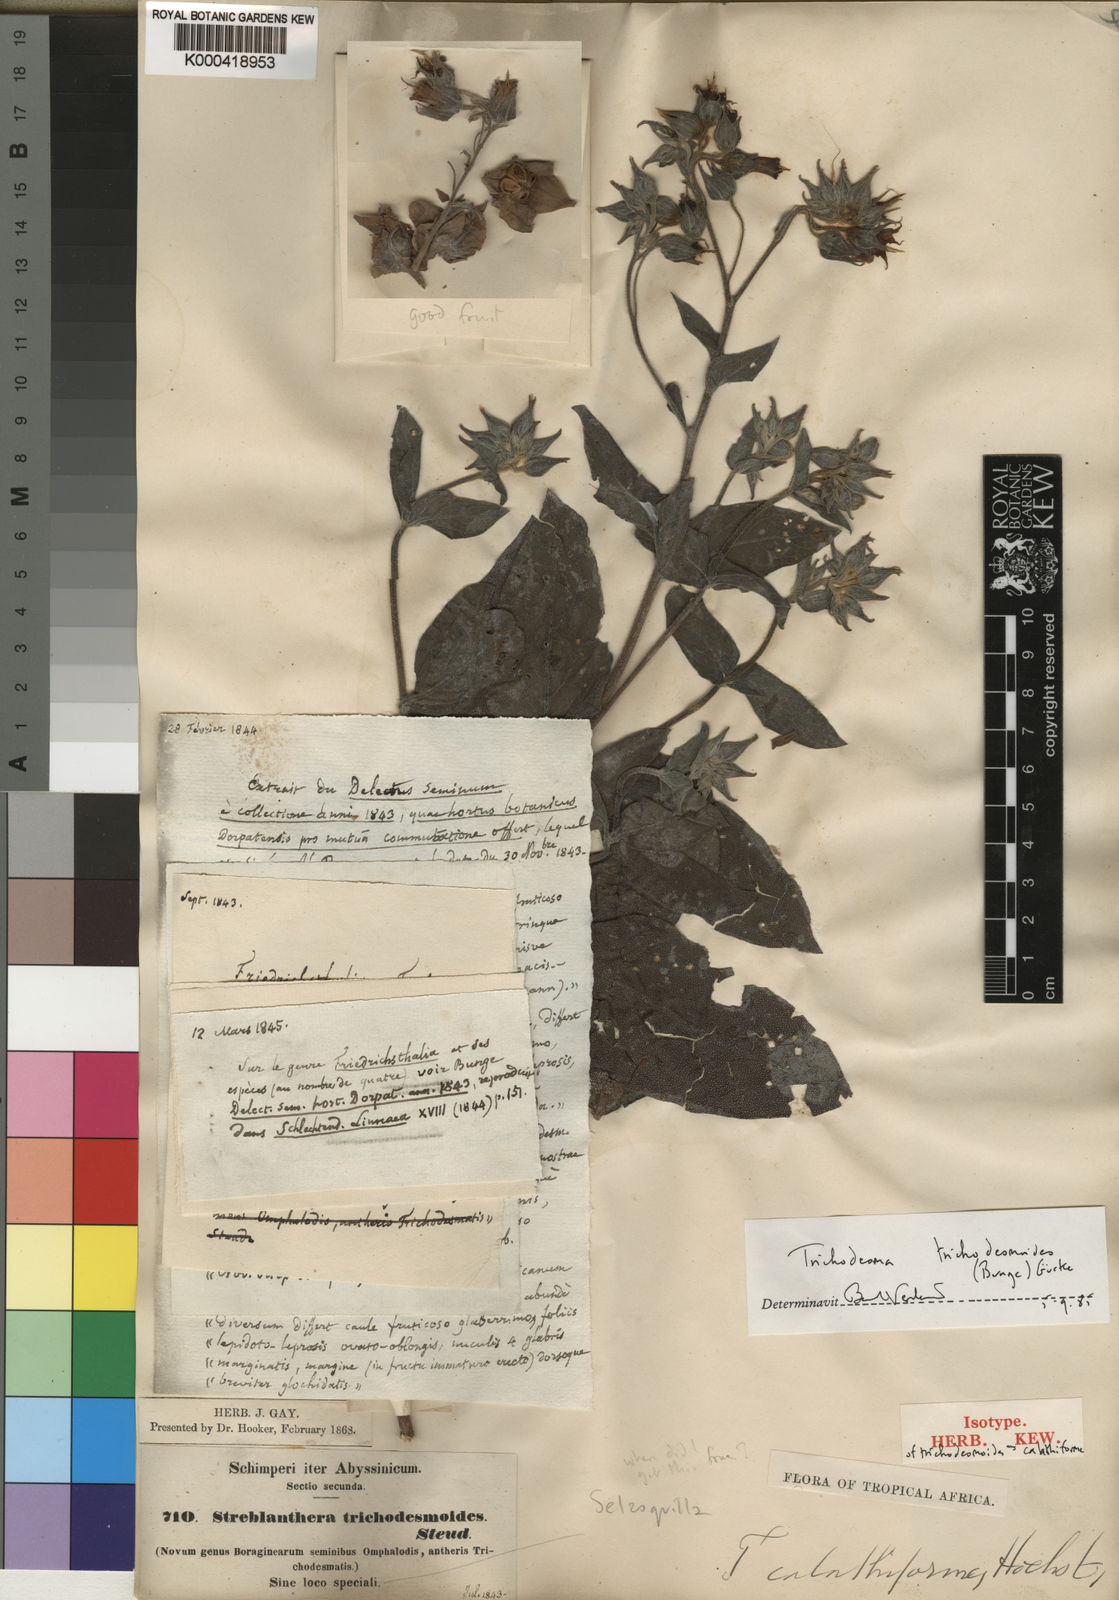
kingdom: Plantae
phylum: Tracheophyta
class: Magnoliopsida
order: Boraginales
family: Boraginaceae
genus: Trichodesma
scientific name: Trichodesma
